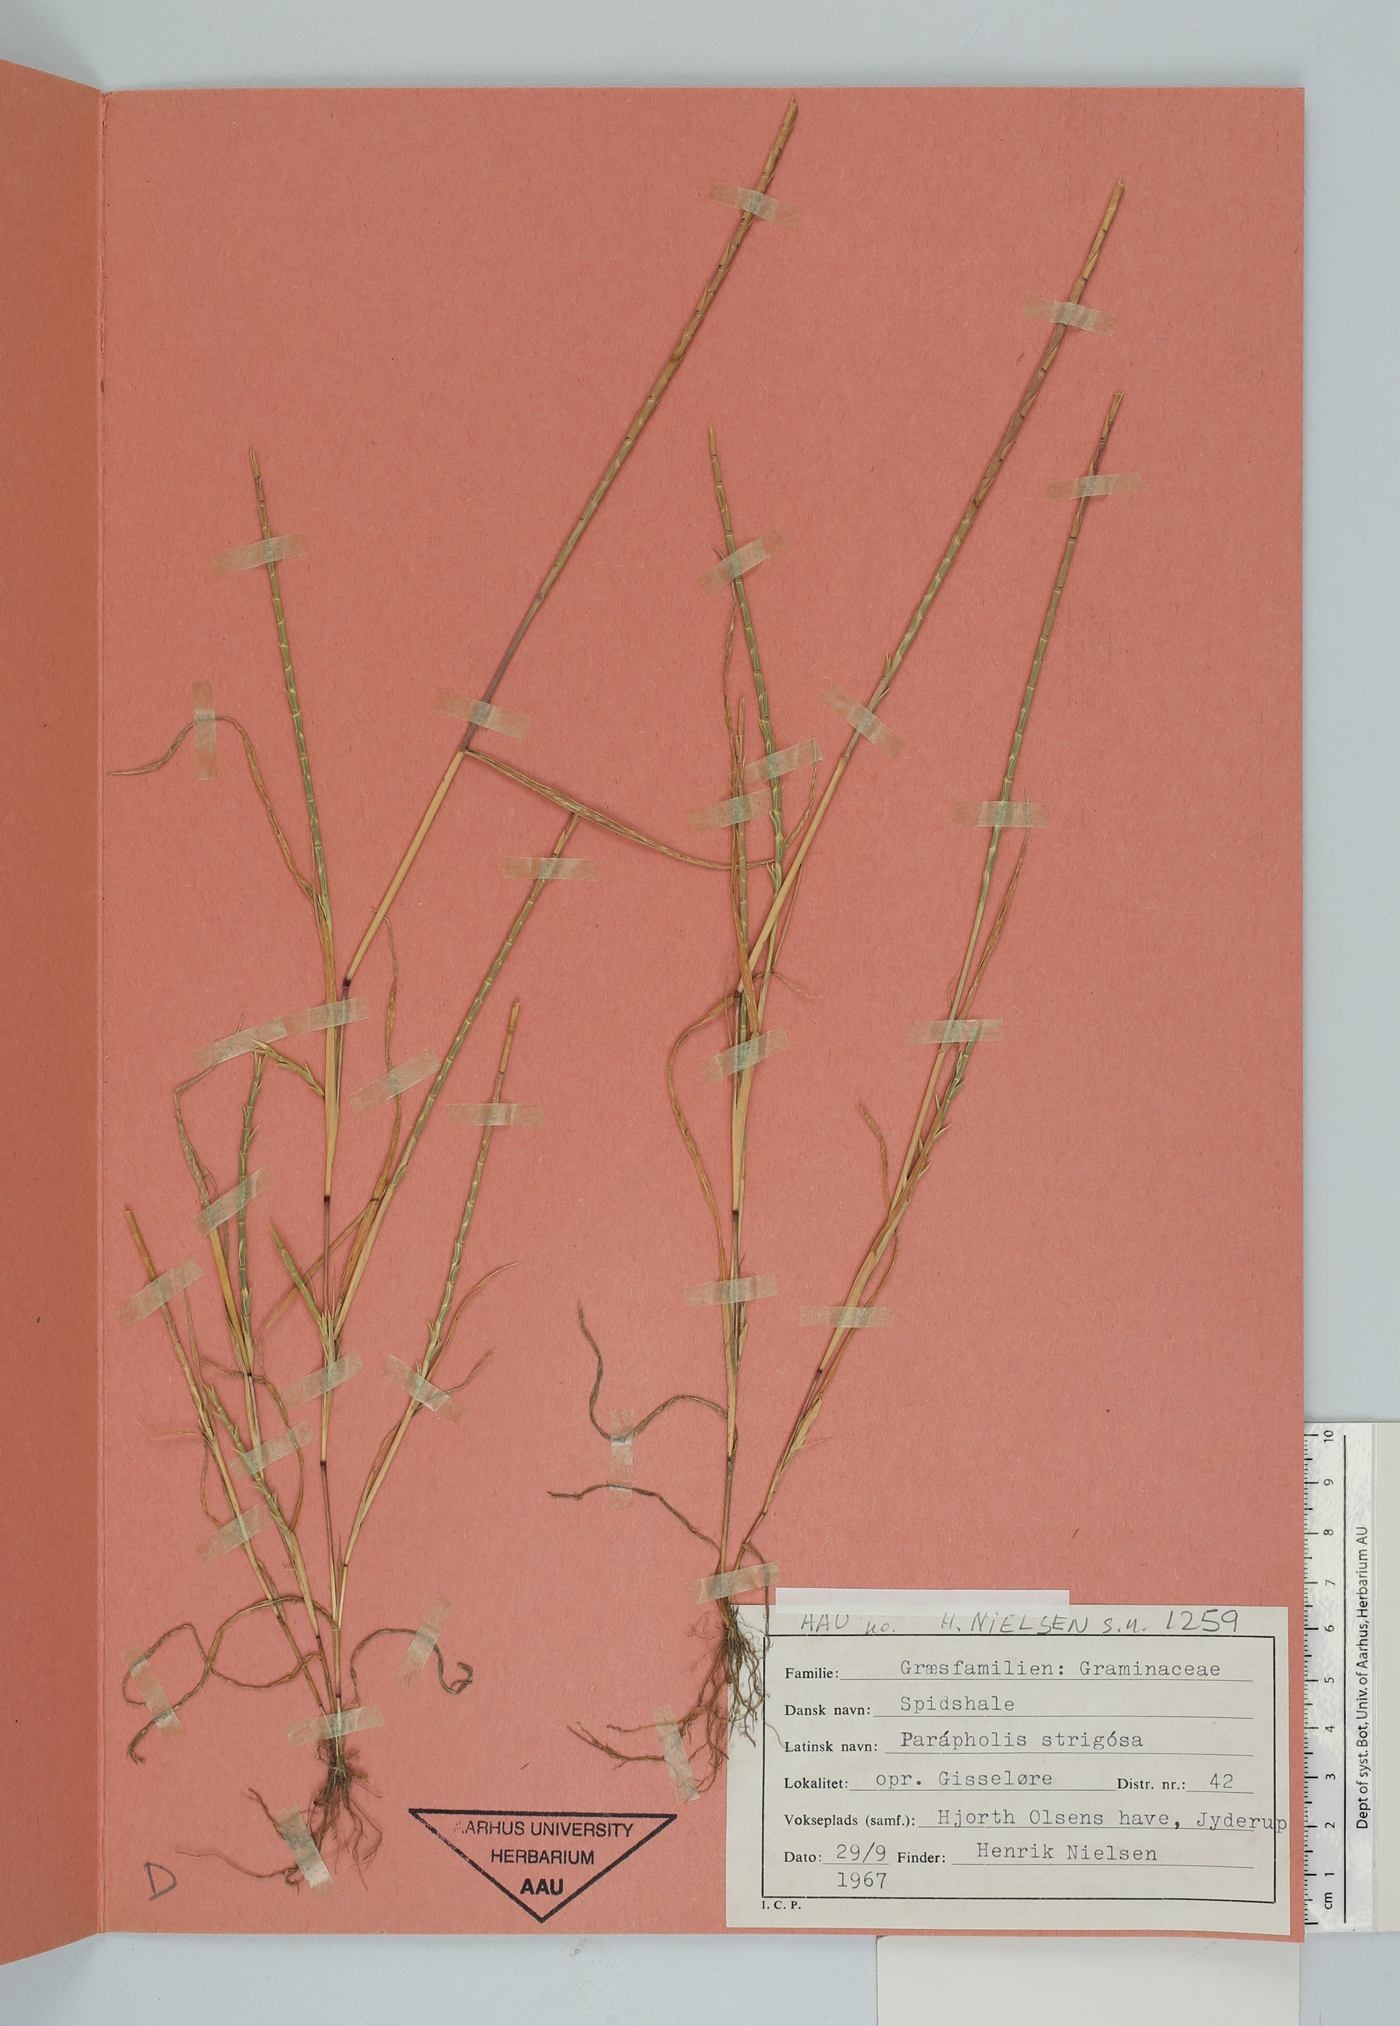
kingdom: Plantae
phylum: Tracheophyta
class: Liliopsida
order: Poales
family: Poaceae
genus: Parapholis
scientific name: Parapholis strigosa
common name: Hard-grass
